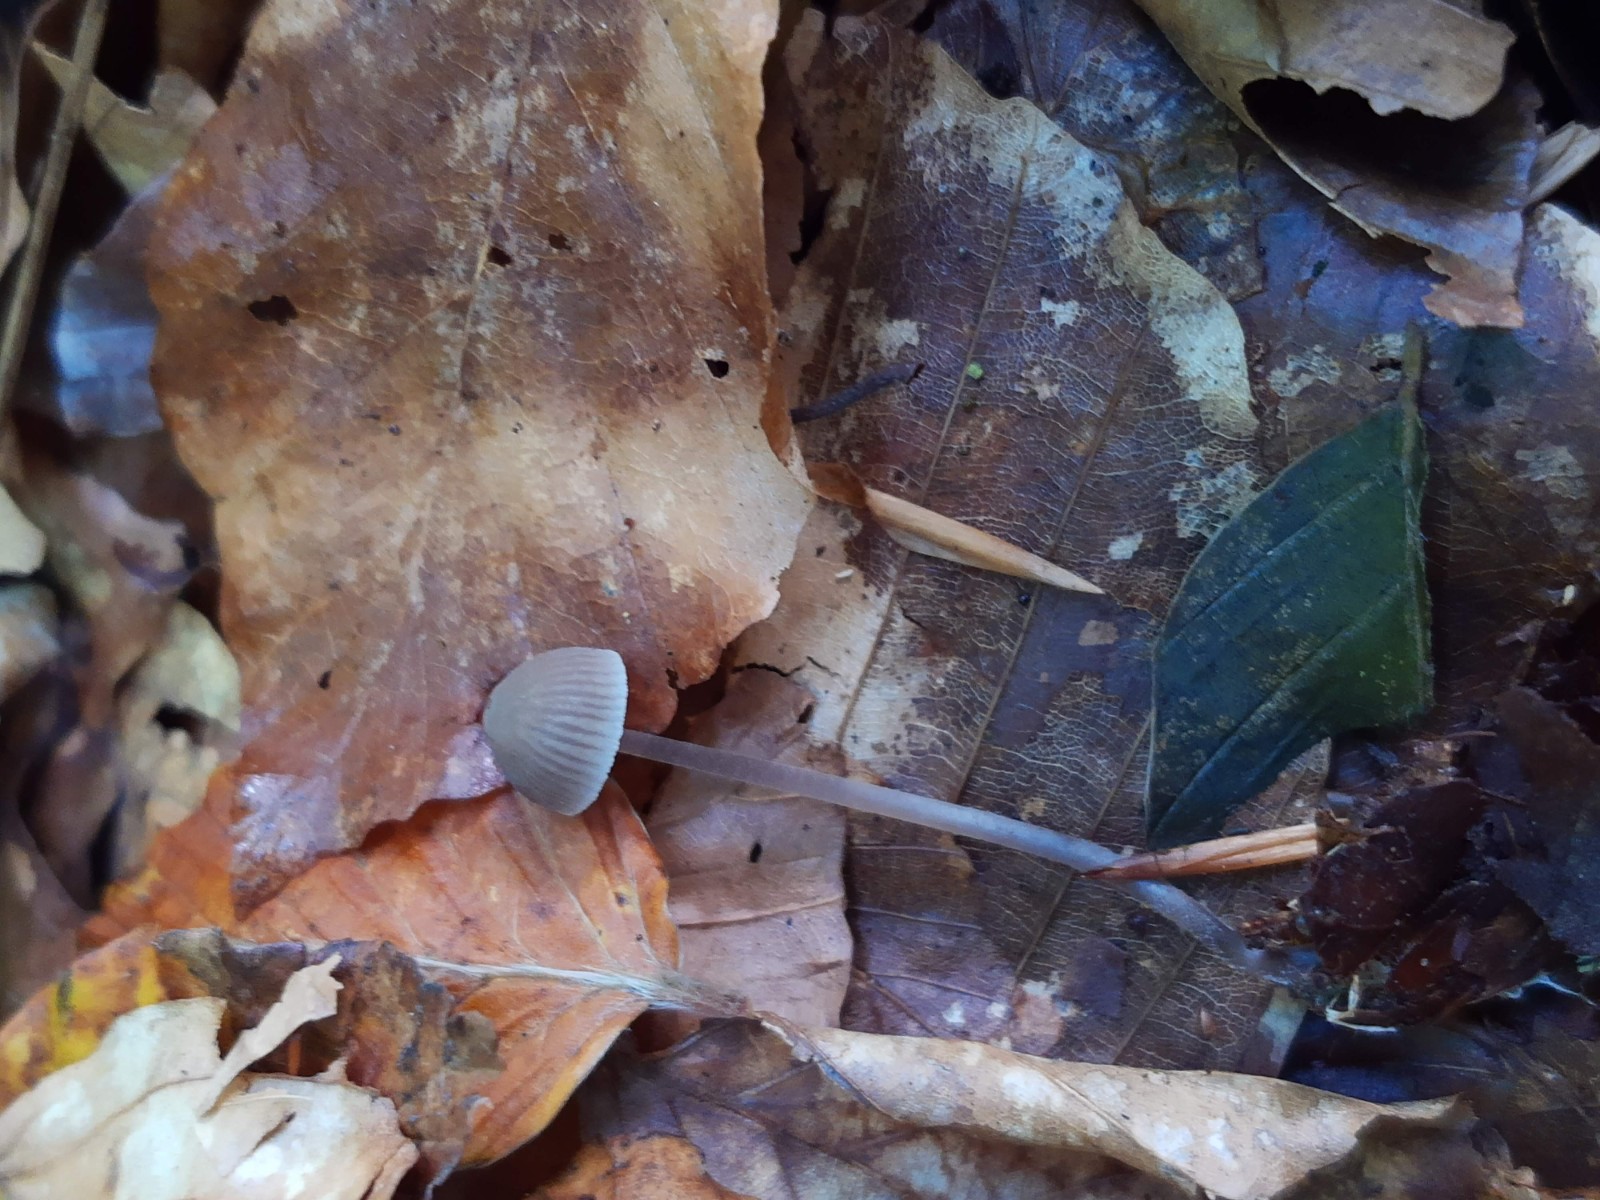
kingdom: Fungi
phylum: Basidiomycota
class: Agaricomycetes
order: Agaricales
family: Mycenaceae
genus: Mycena
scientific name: Mycena leptocephala
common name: klor-huesvamp
